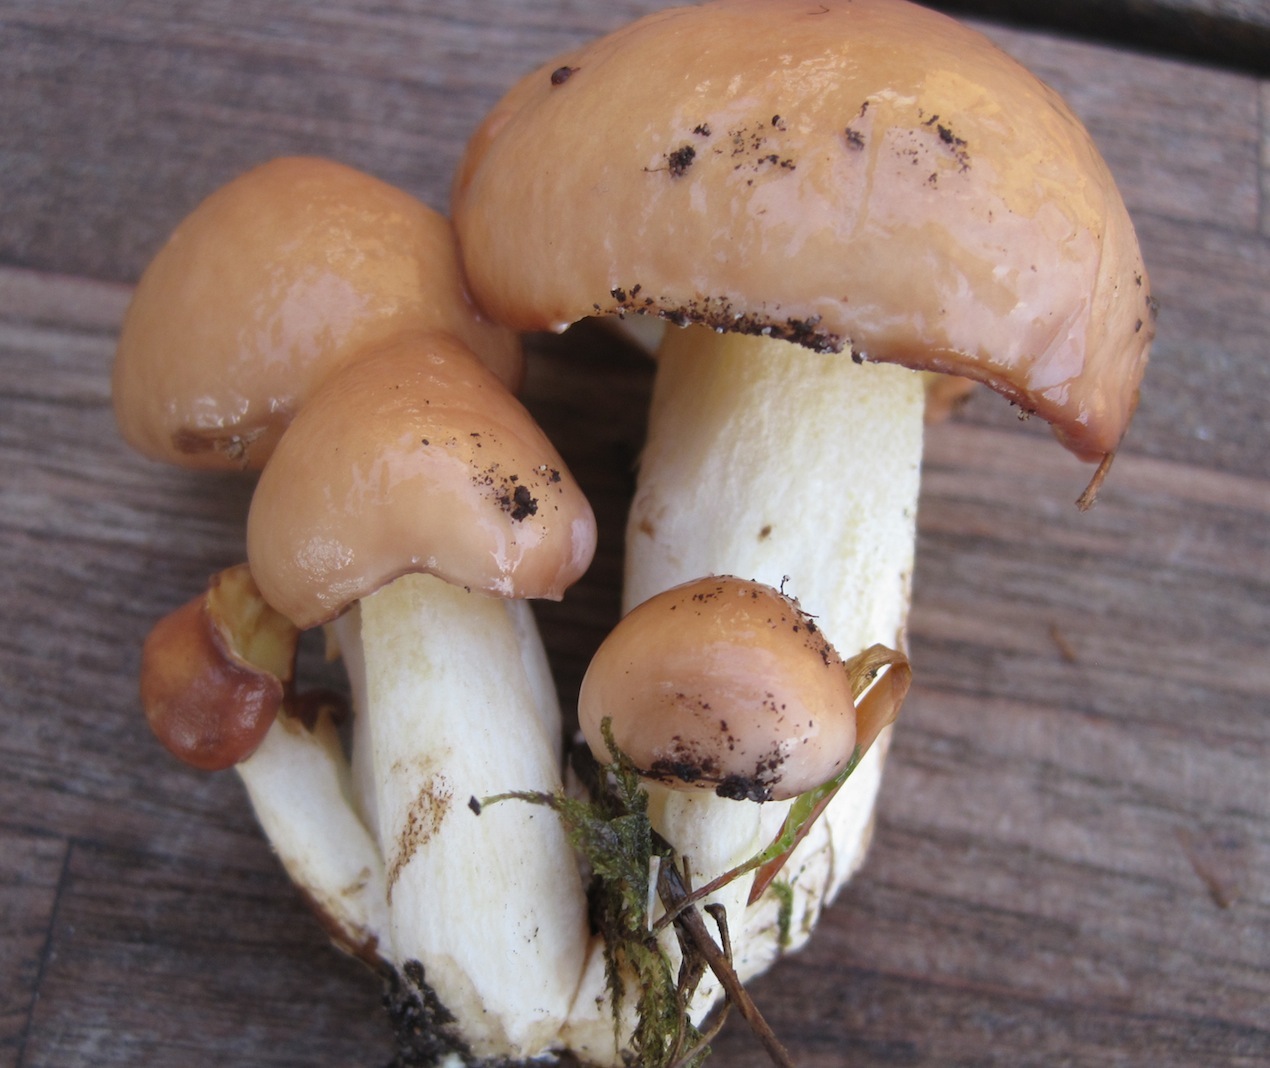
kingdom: Fungi
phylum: Basidiomycota
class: Agaricomycetes
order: Boletales
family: Suillaceae
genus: Suillus
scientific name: Suillus granulatus
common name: kornet slimrørhat
